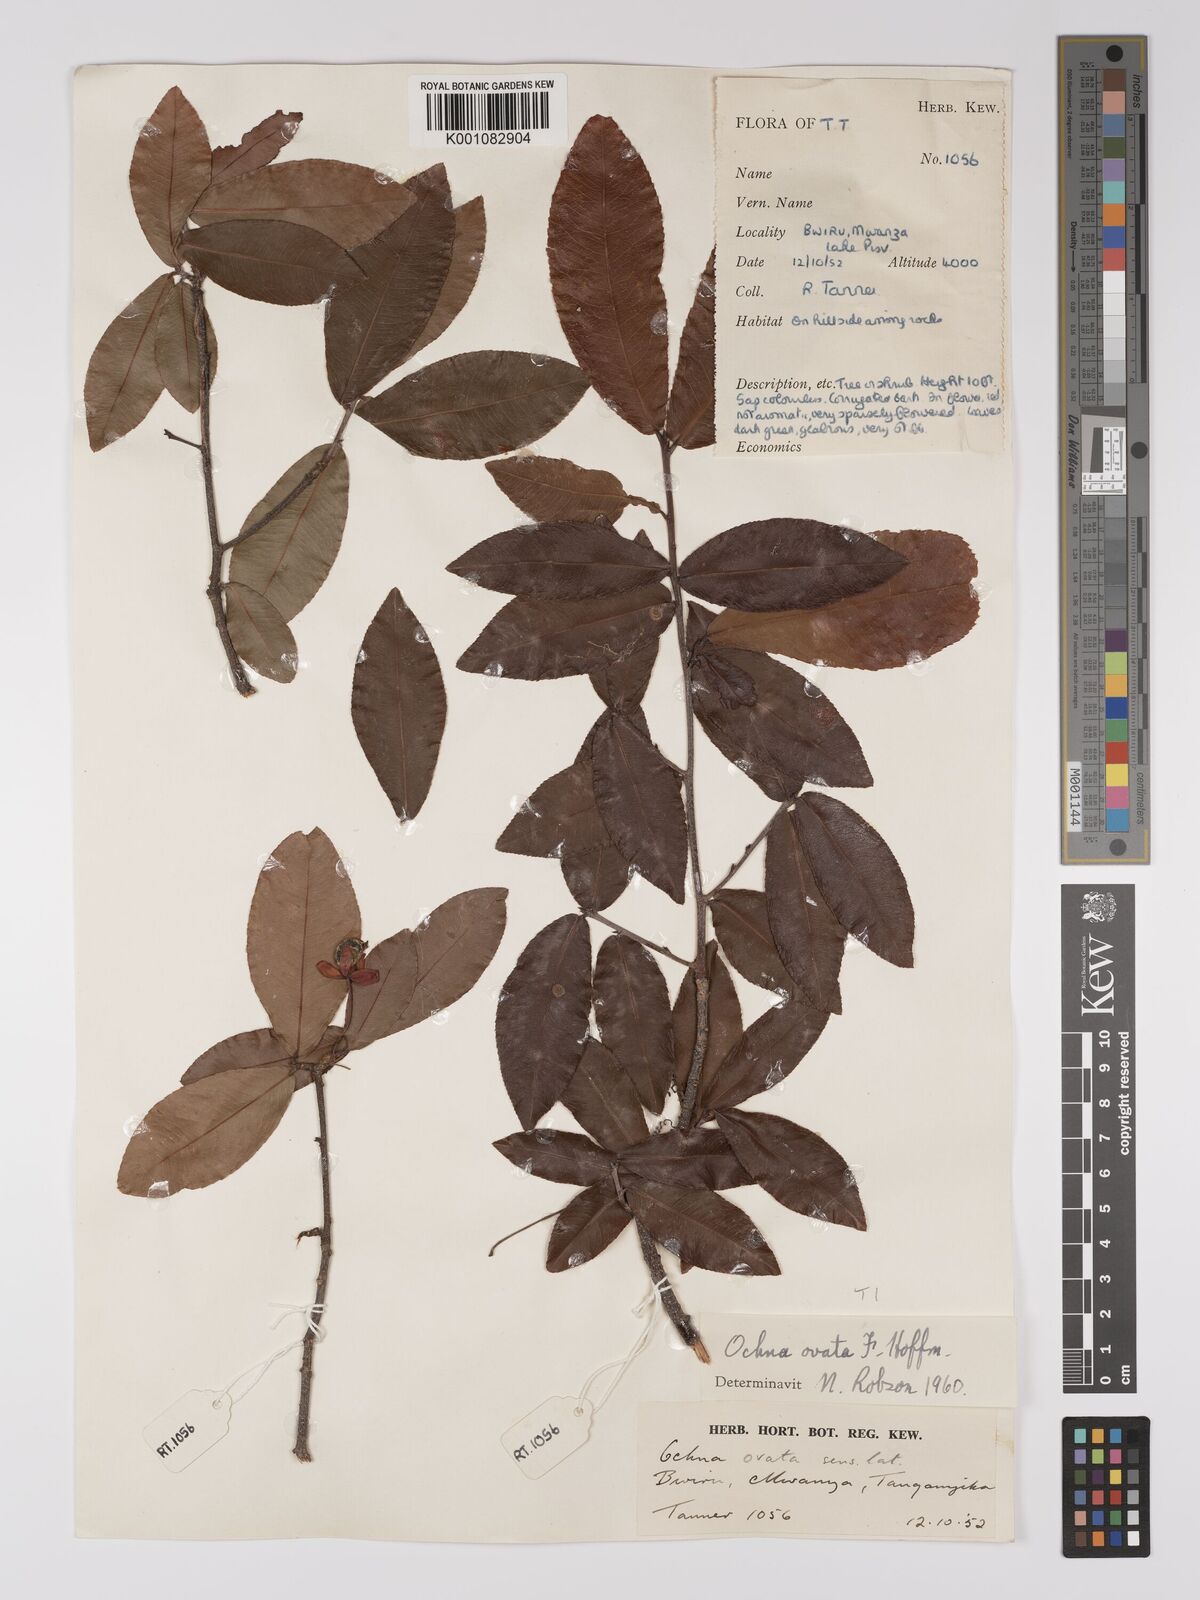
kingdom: Plantae
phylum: Tracheophyta
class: Magnoliopsida
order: Malpighiales
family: Ochnaceae
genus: Ochna
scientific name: Ochna ovata
